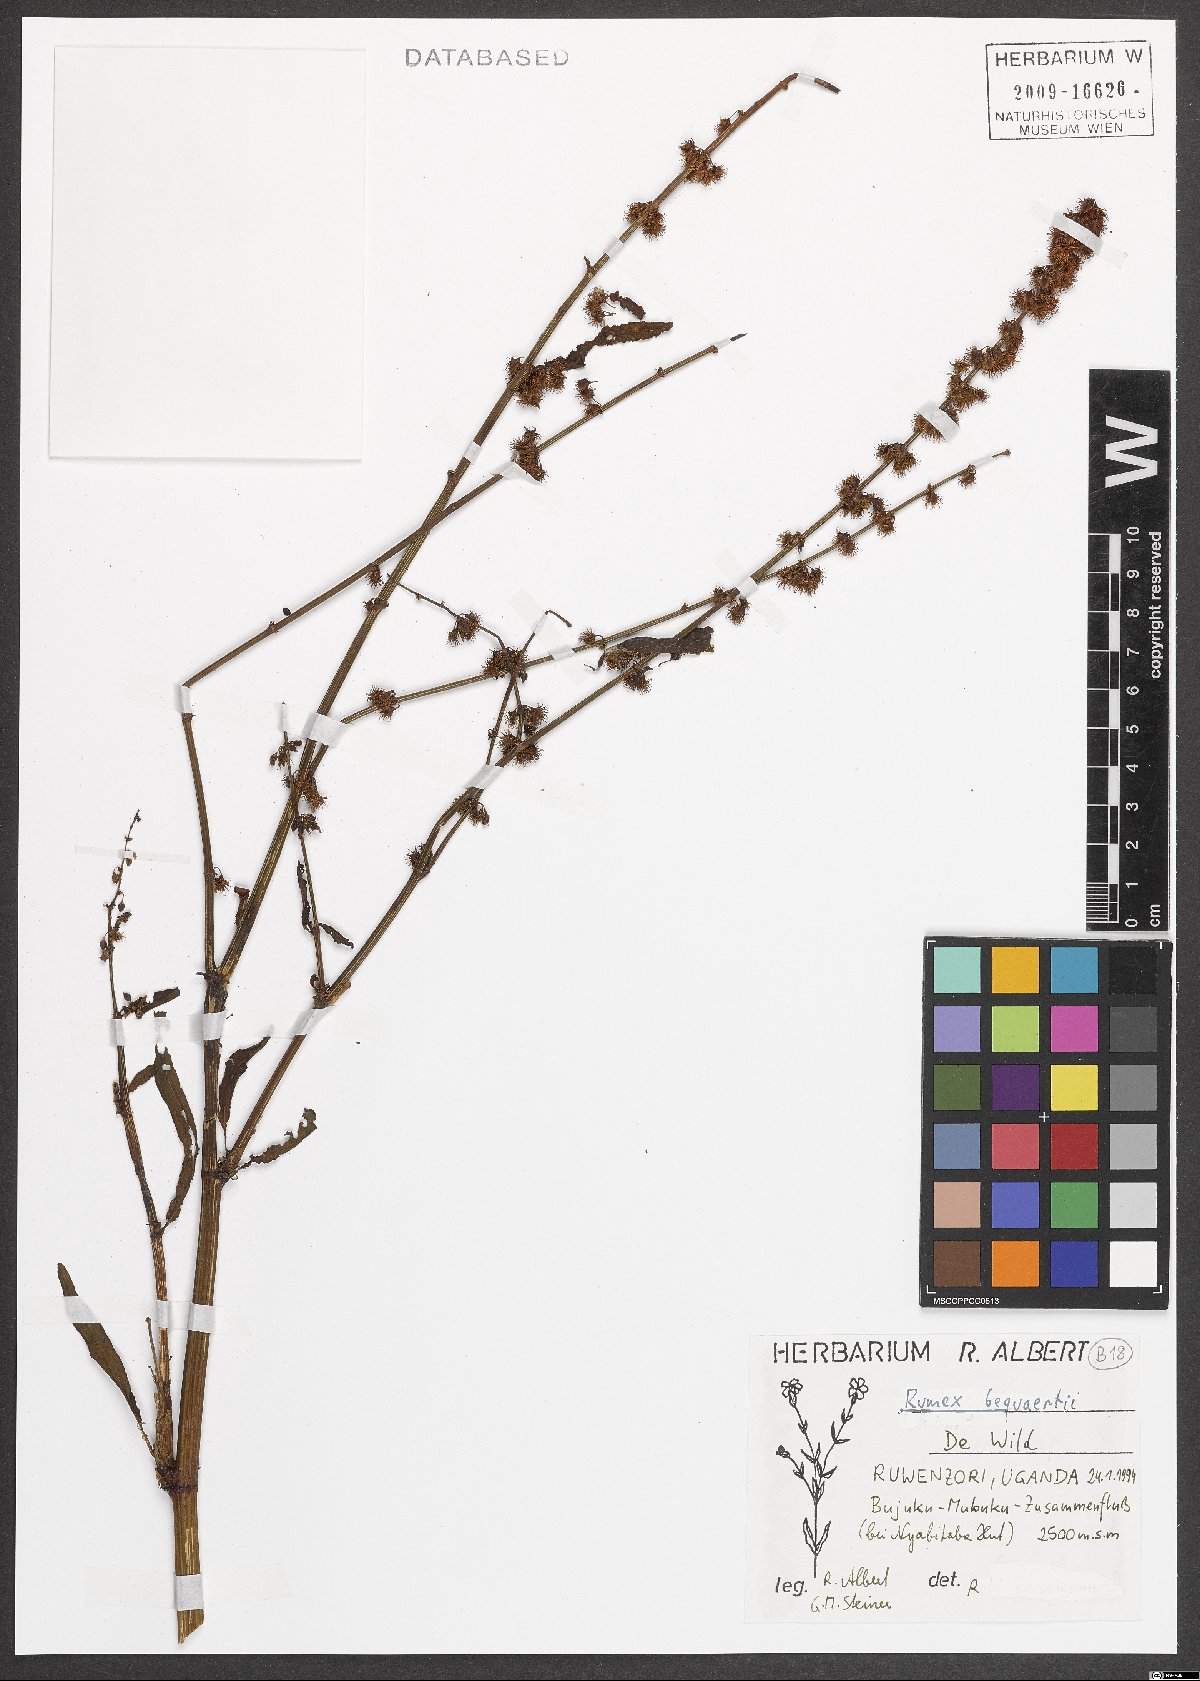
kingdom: Plantae
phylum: Tracheophyta
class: Magnoliopsida
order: Caryophyllales
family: Polygonaceae
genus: Rumex
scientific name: Rumex bequaertii
